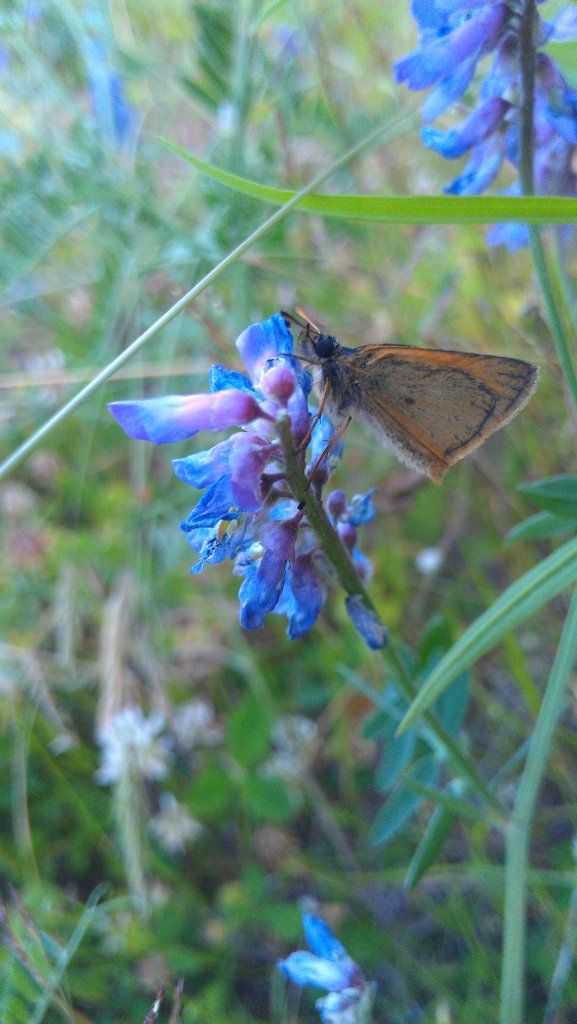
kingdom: Animalia
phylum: Arthropoda
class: Insecta
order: Lepidoptera
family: Hesperiidae
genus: Thymelicus
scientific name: Thymelicus lineola
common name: European Skipper
